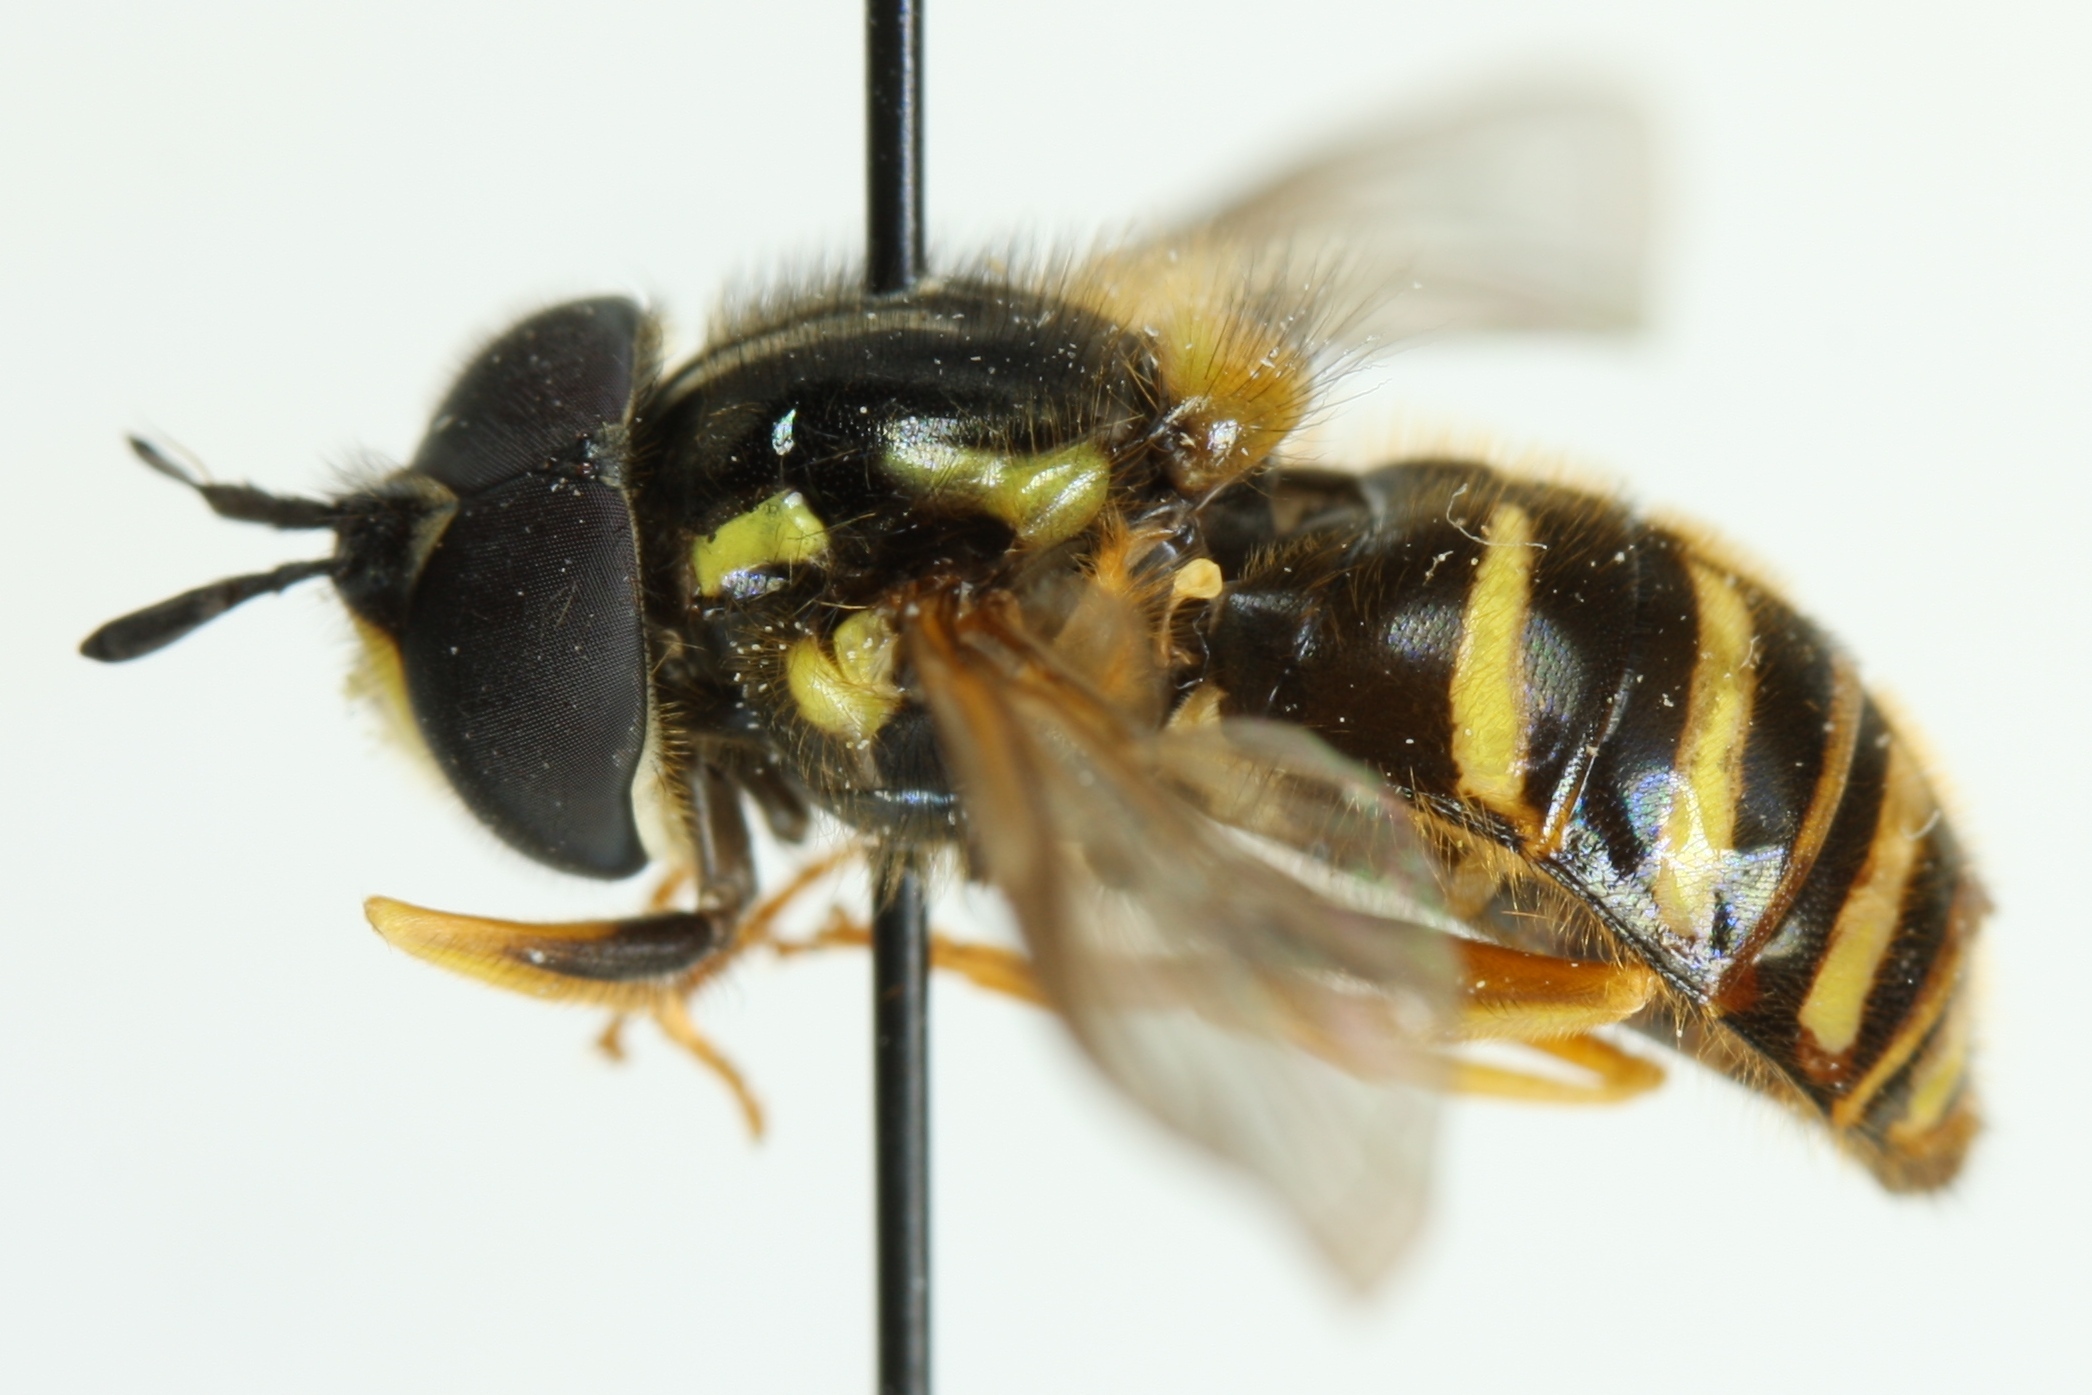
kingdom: Animalia
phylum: Arthropoda
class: Insecta
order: Diptera
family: Syrphidae
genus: Chrysotoxum
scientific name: Chrysotoxum arcuatum
